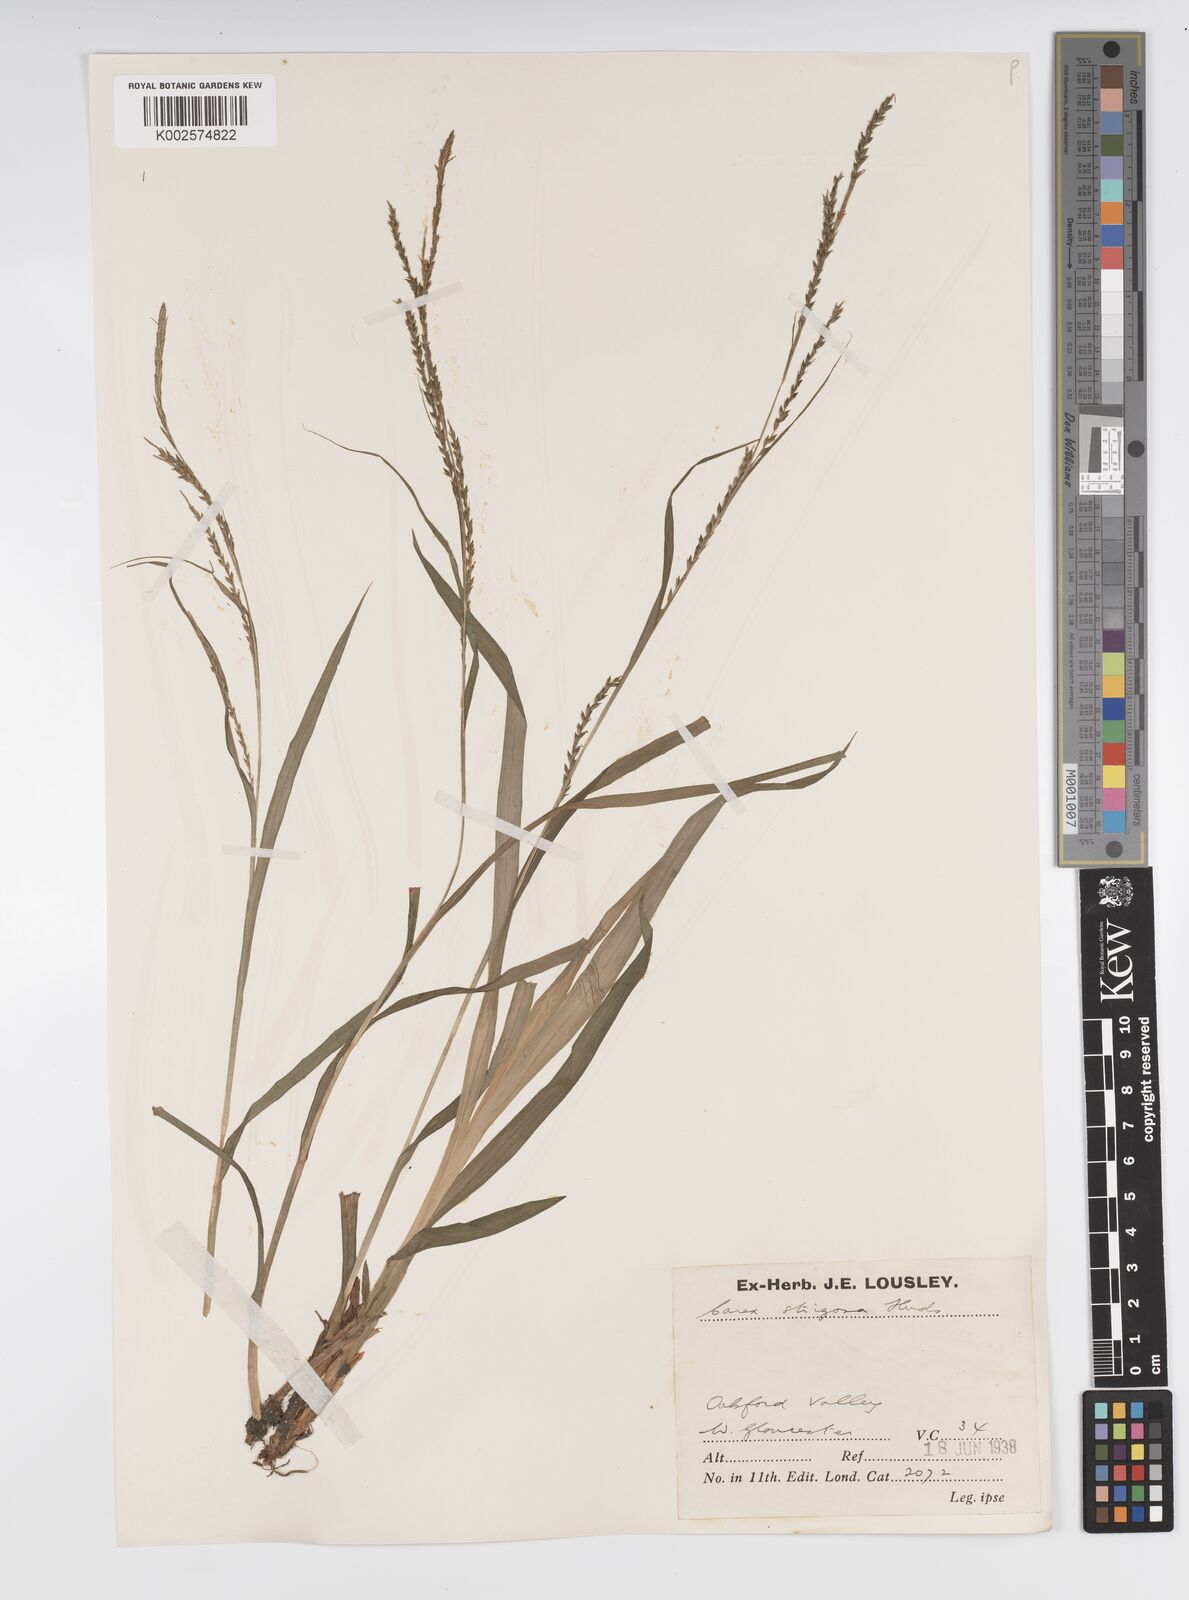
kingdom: Plantae
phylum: Tracheophyta
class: Liliopsida
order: Poales
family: Cyperaceae
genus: Carex
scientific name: Carex strigosa
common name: Thin-spiked wood-sedge
